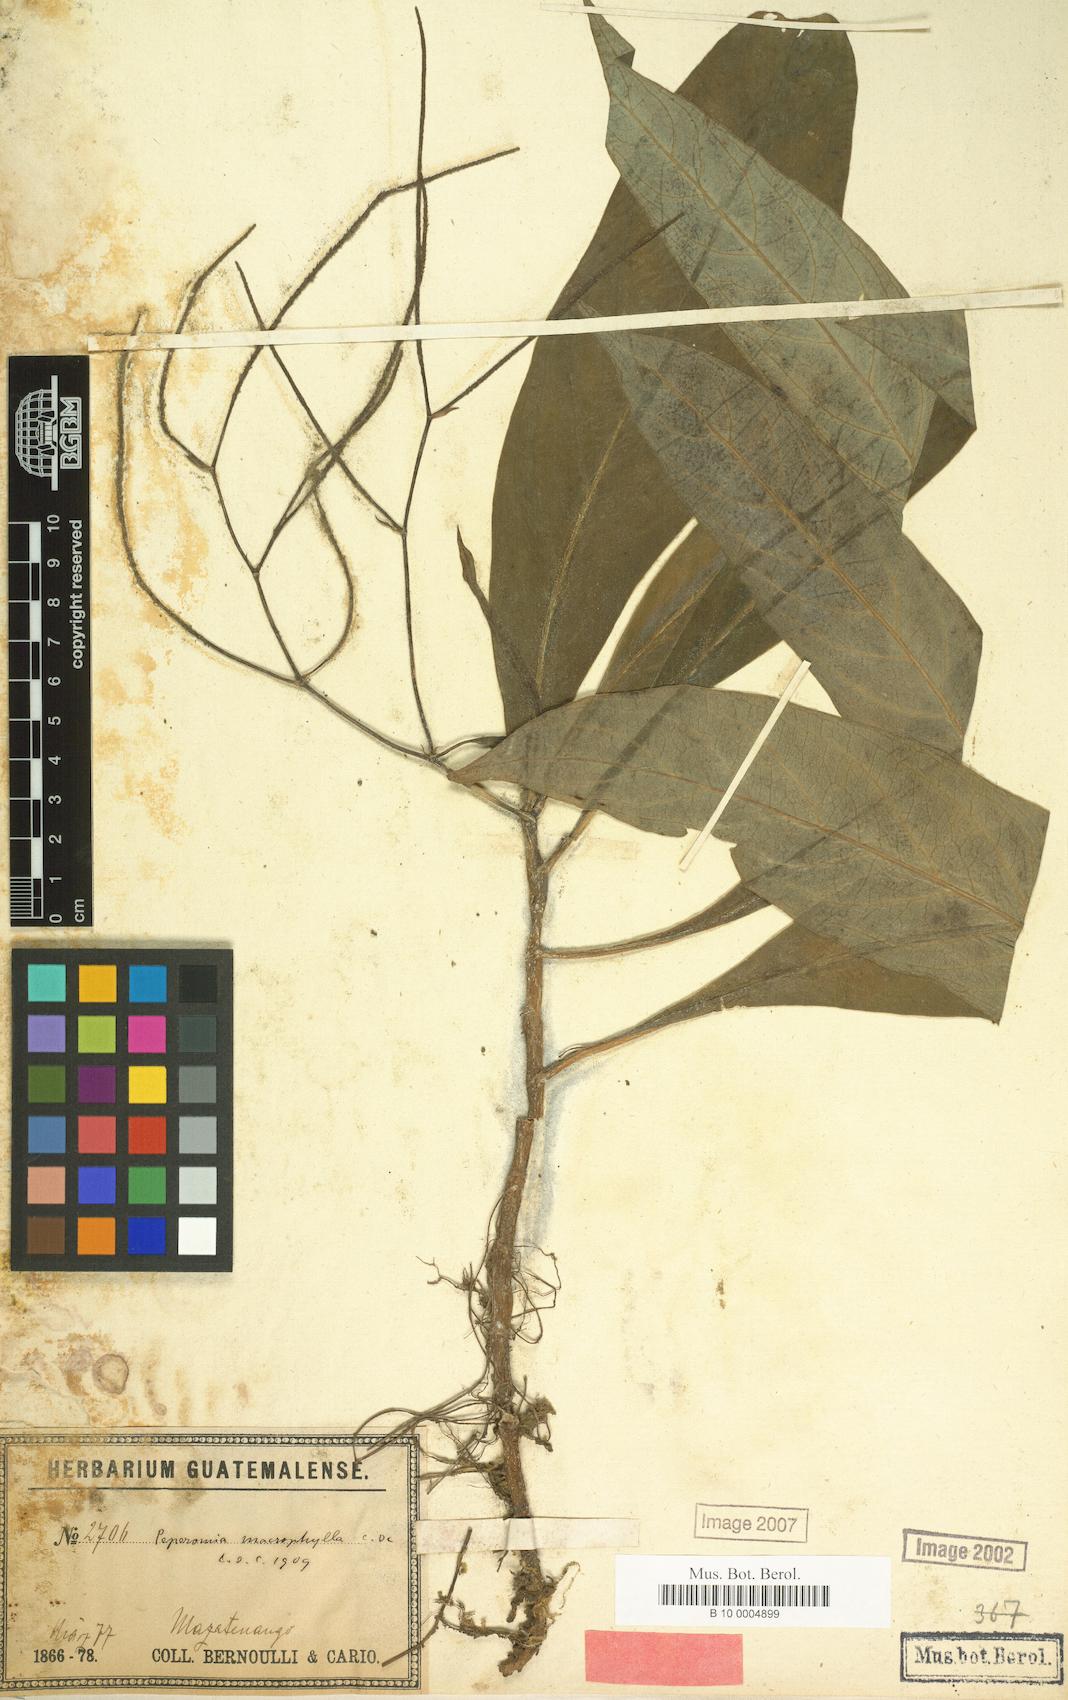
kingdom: Plantae
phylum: Tracheophyta
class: Magnoliopsida
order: Piperales
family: Piperaceae
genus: Peperomia
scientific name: Peperomia lancifolia
